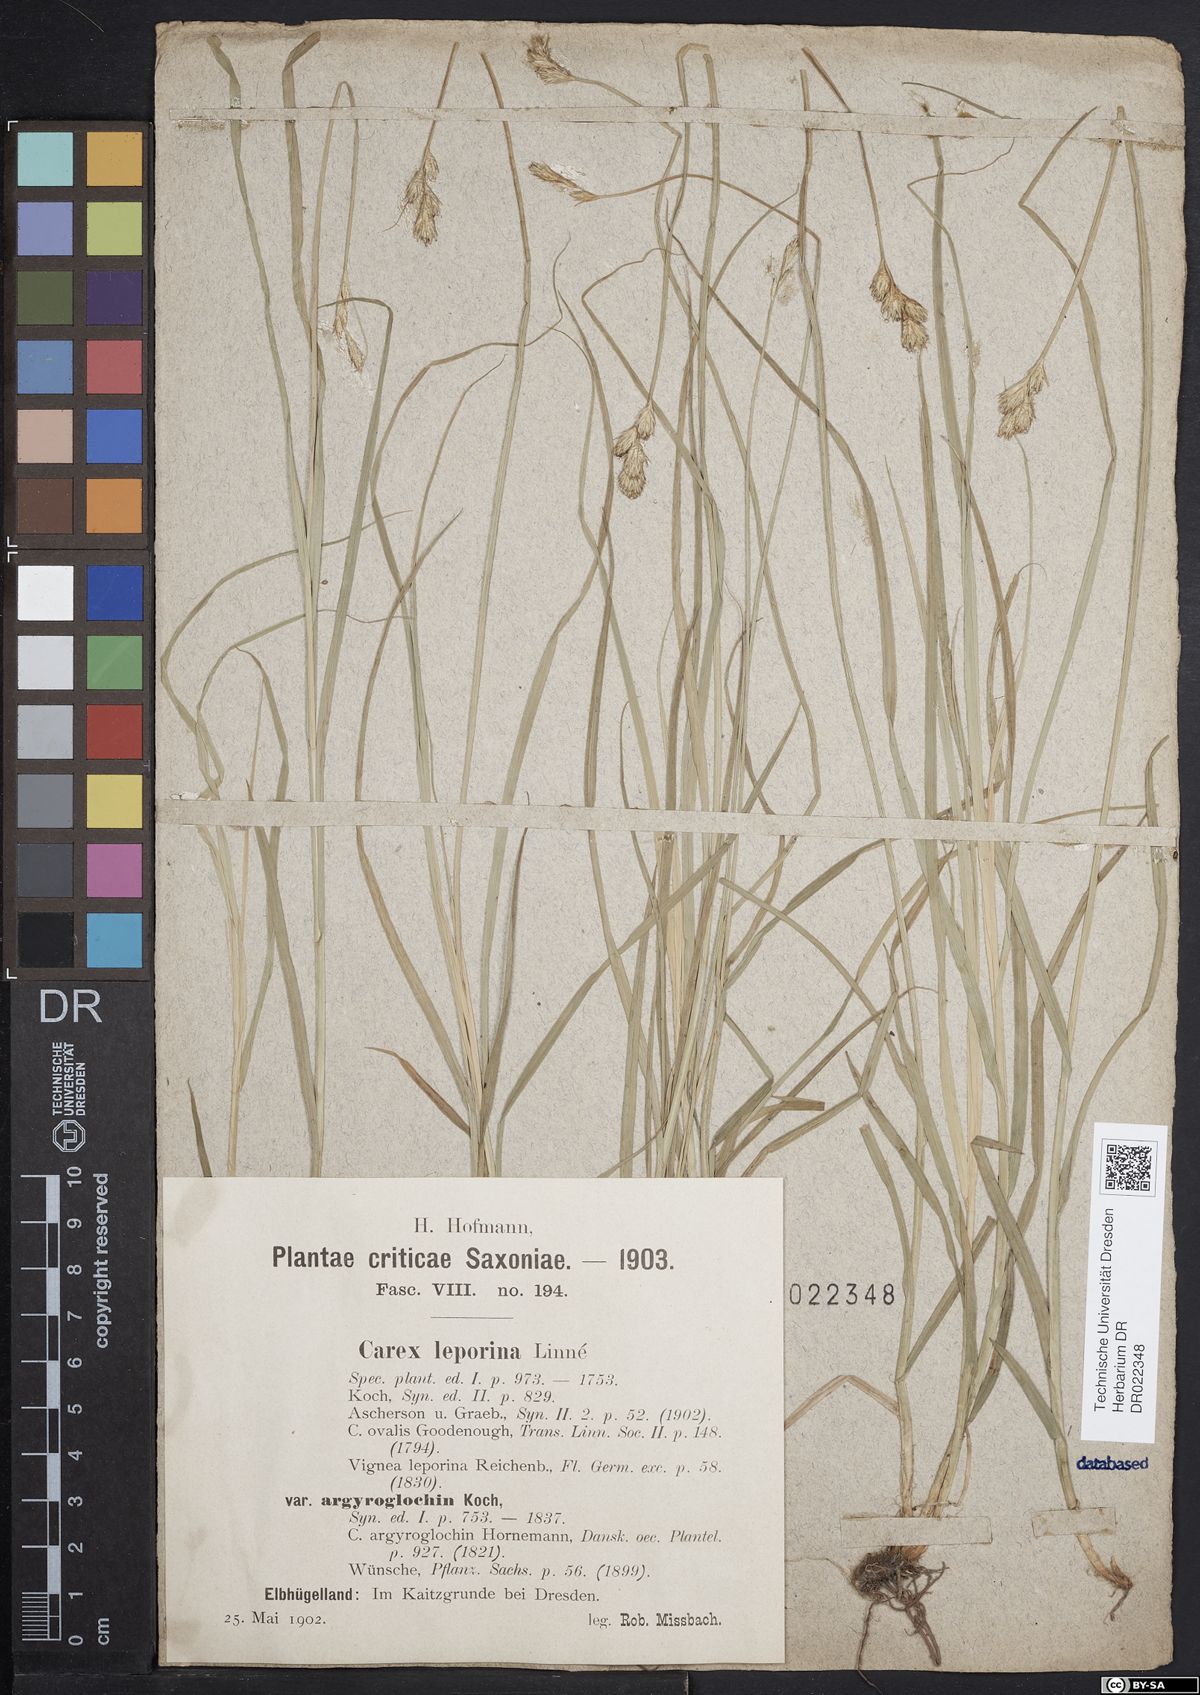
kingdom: Plantae
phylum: Tracheophyta
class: Liliopsida
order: Poales
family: Cyperaceae
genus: Carex
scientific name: Carex leporina
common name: Oval sedge
